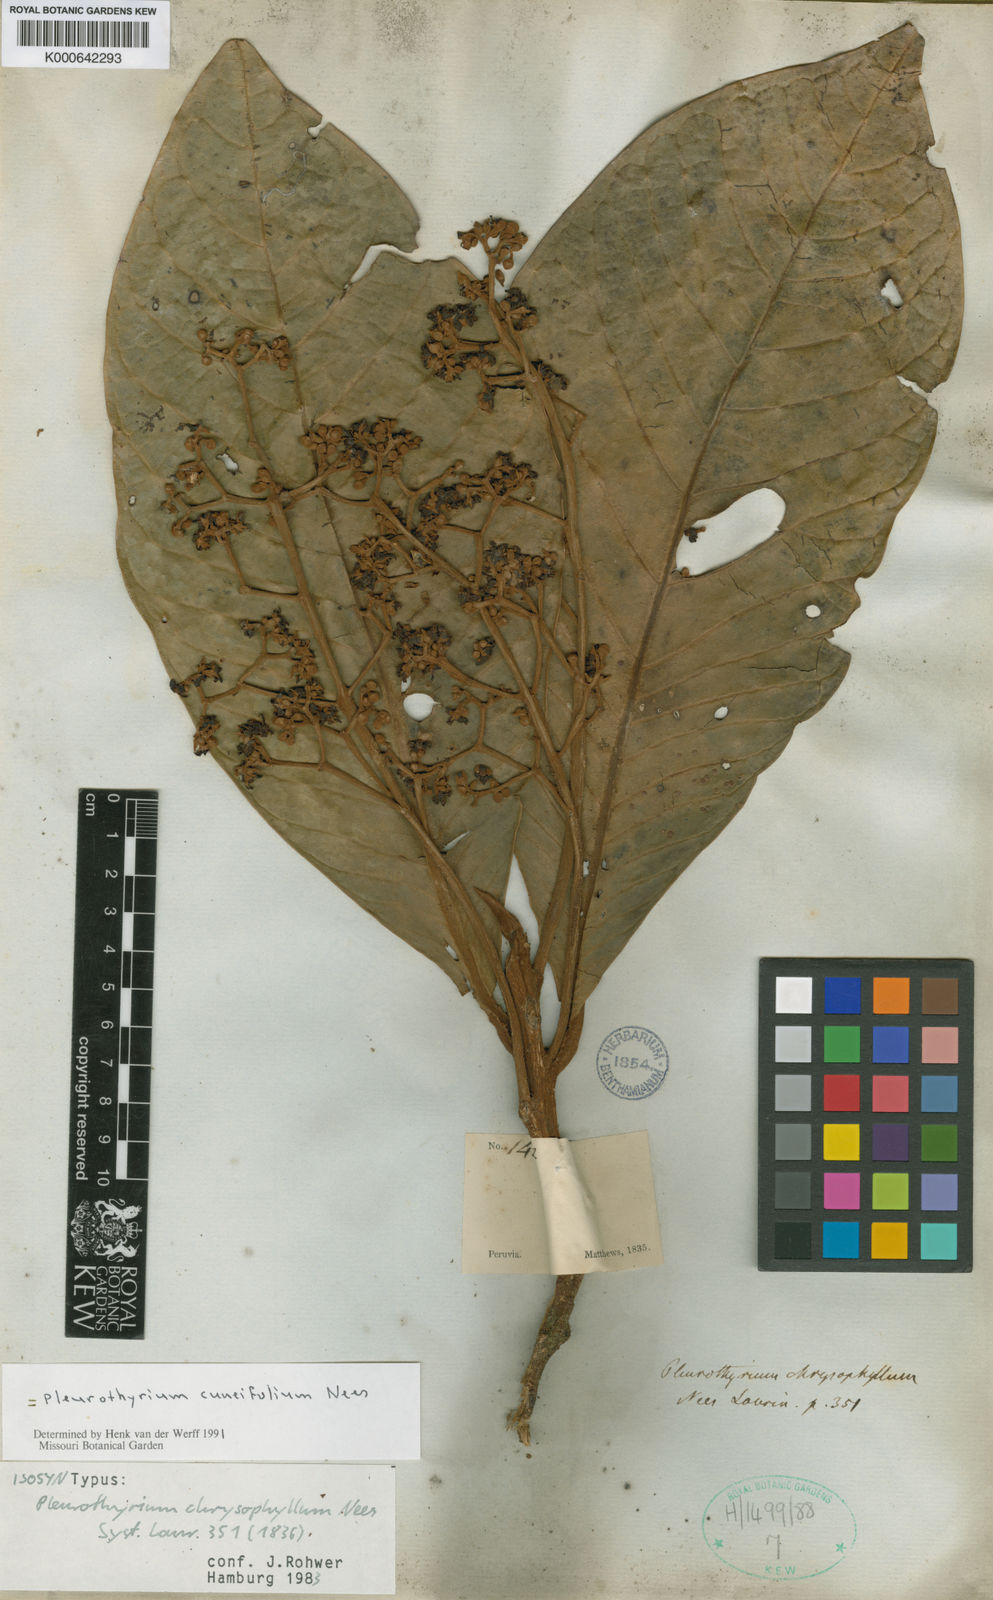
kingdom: Plantae
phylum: Tracheophyta
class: Magnoliopsida
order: Laurales
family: Lauraceae
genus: Pleurothyrium
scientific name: Pleurothyrium cuneifolium
